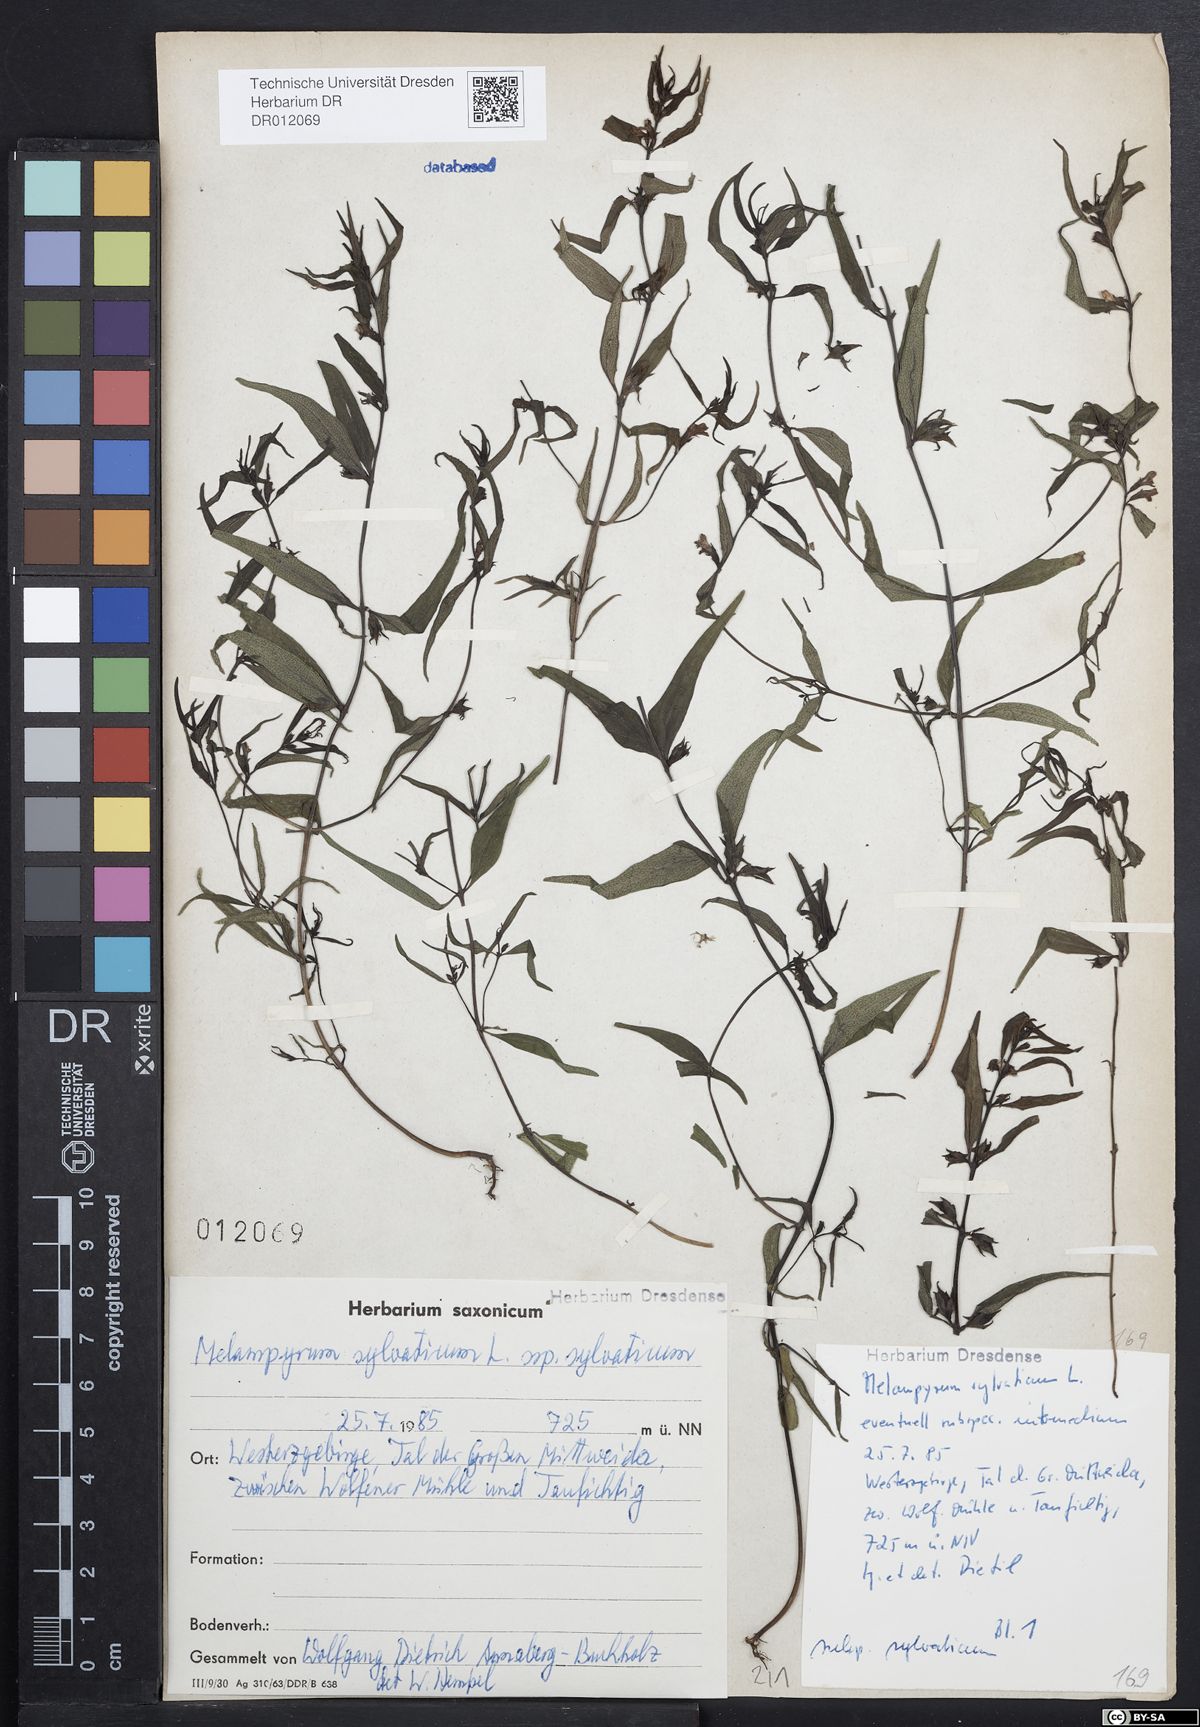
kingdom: Plantae
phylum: Tracheophyta
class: Magnoliopsida
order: Lamiales
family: Orobanchaceae
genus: Melampyrum
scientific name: Melampyrum sylvaticum
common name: Small cow-wheat
